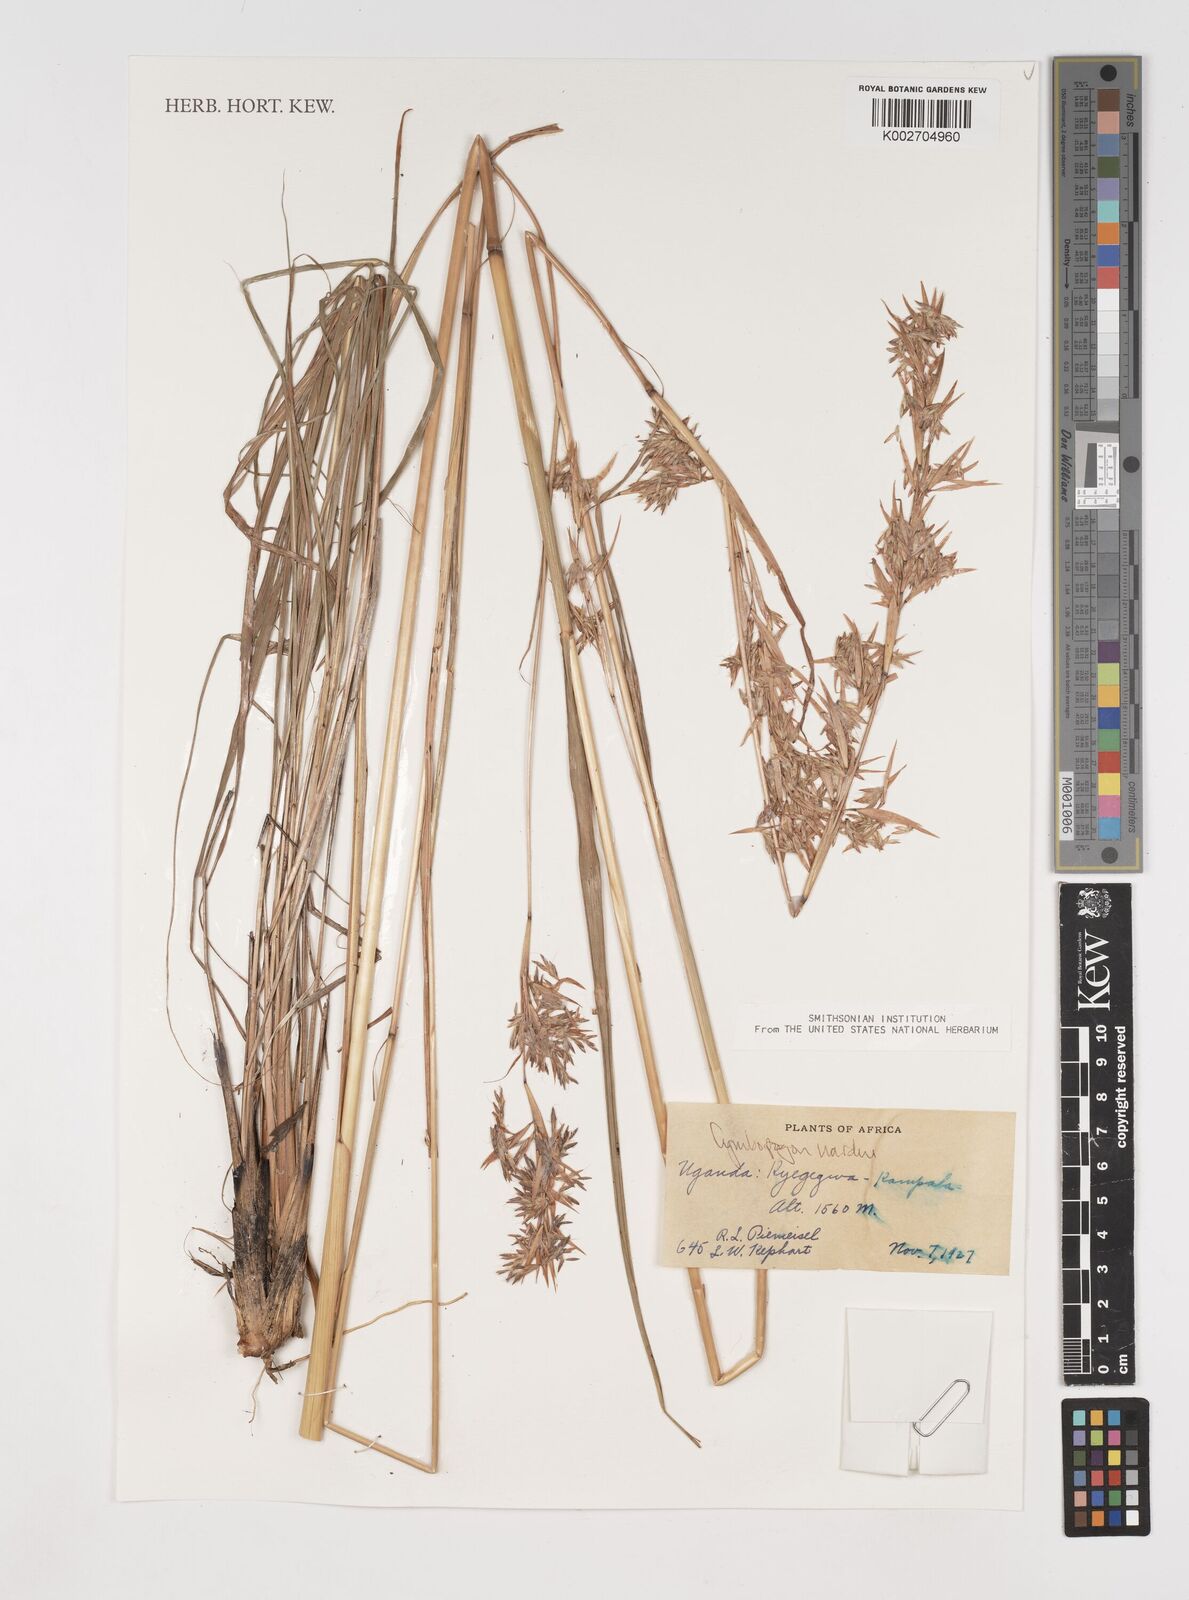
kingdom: Plantae
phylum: Tracheophyta
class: Liliopsida
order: Poales
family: Poaceae
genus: Cymbopogon
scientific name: Cymbopogon nardus
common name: Giant turpentine grass
